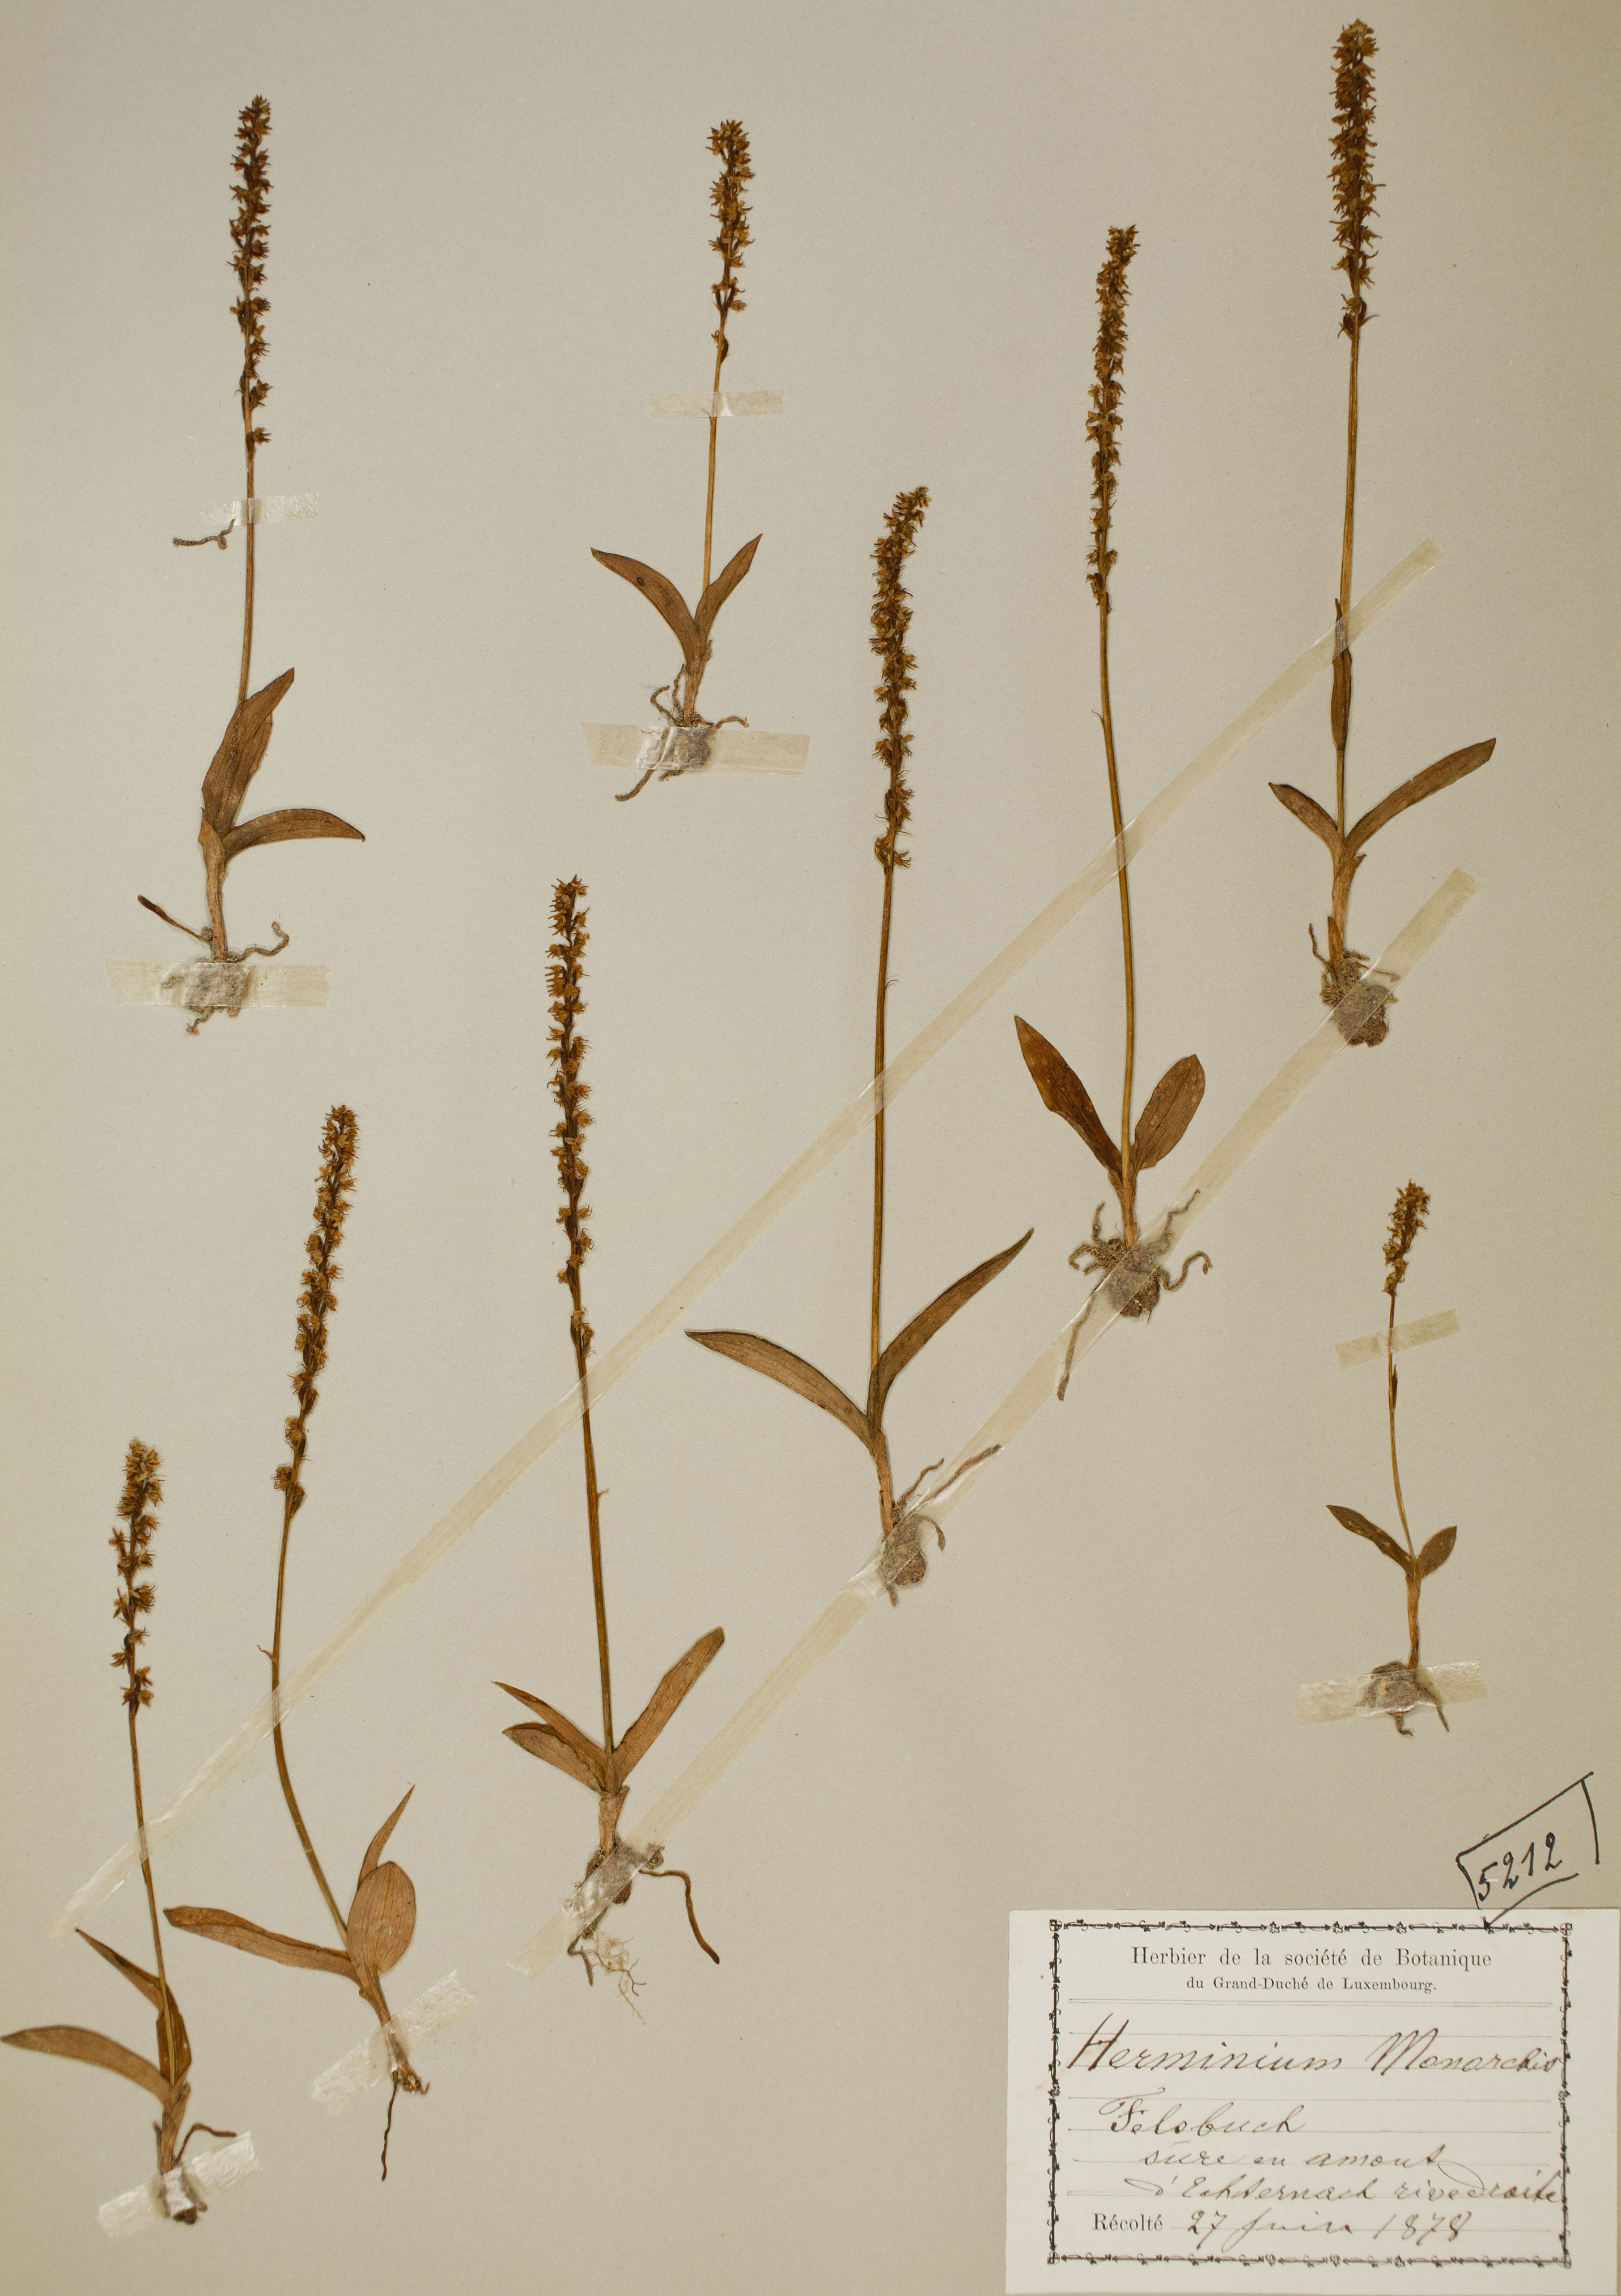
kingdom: Plantae
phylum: Tracheophyta
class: Liliopsida
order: Asparagales
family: Orchidaceae
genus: Herminium
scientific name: Herminium monorchis
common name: Musk orchid
